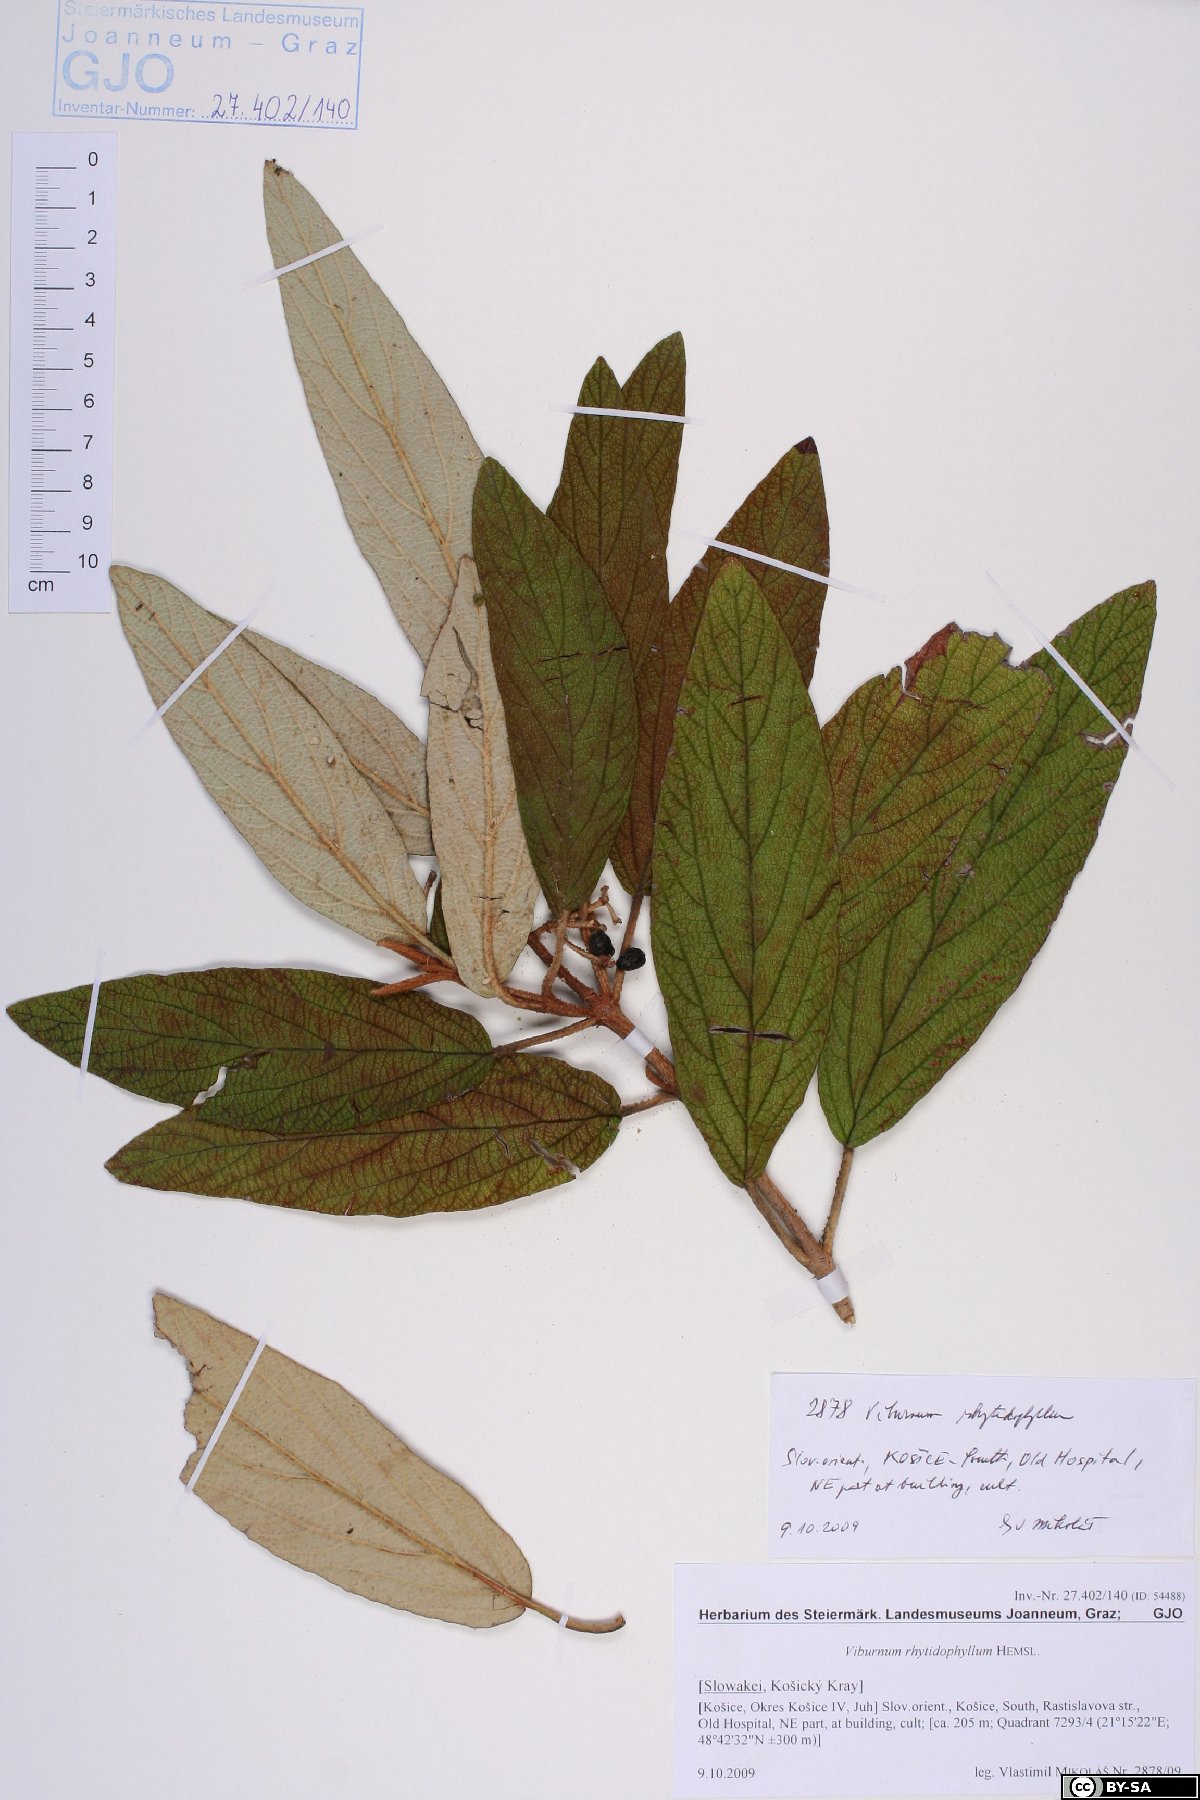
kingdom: Plantae
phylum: Tracheophyta
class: Magnoliopsida
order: Dipsacales
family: Viburnaceae
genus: Viburnum
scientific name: Viburnum rhytidophyllum
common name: Wrinkled viburnum
